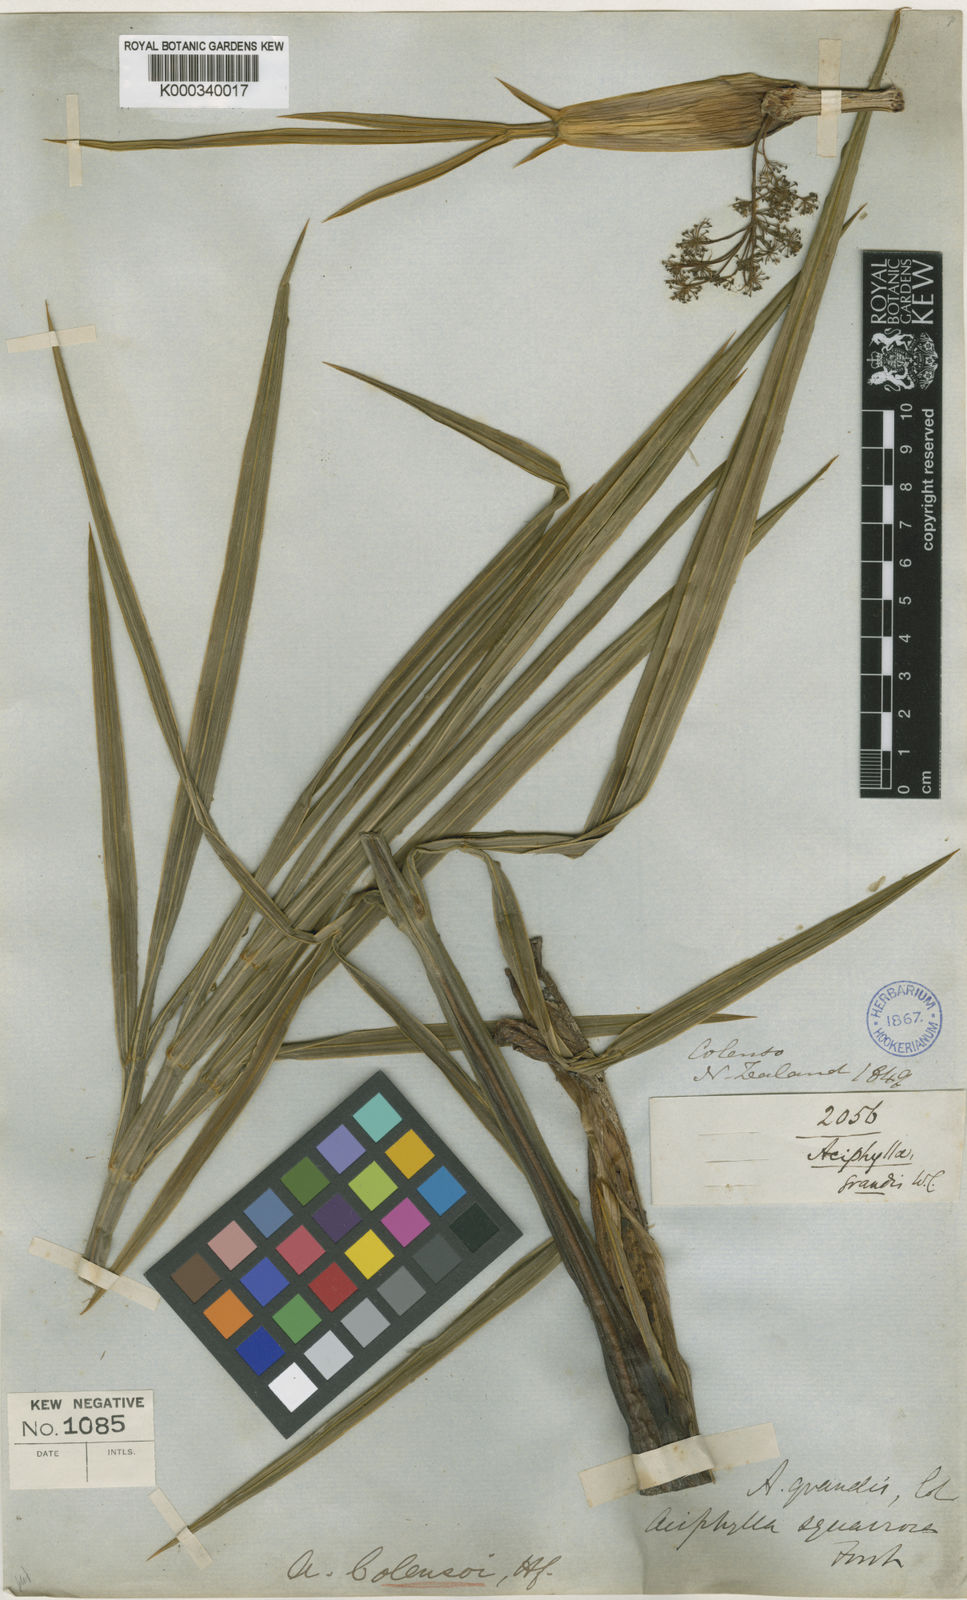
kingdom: Plantae
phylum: Tracheophyta
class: Magnoliopsida
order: Apiales
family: Apiaceae
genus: Aciphylla
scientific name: Aciphylla colensoi
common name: Colenso's spaniard
